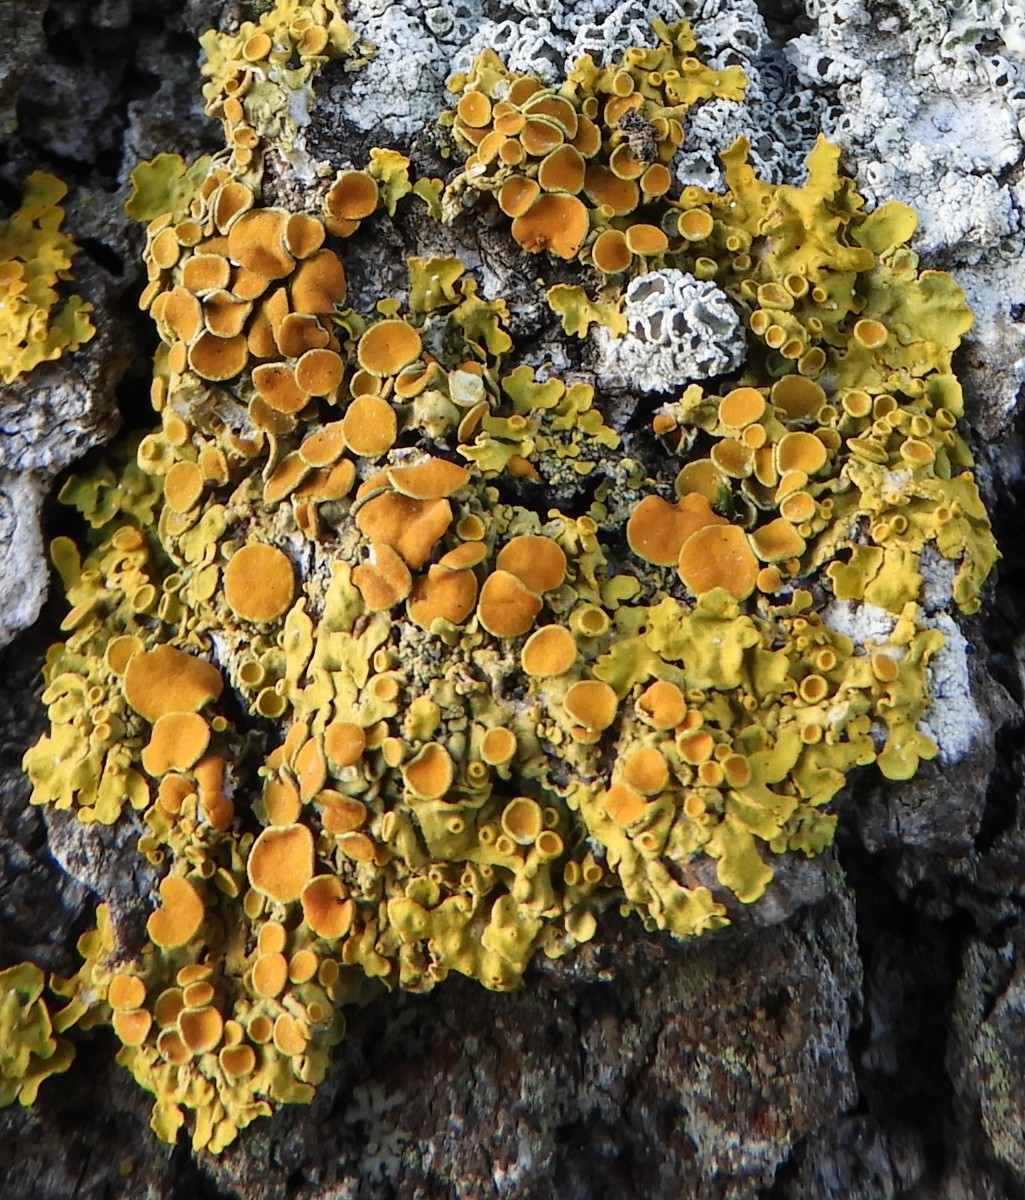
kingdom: Fungi
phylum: Ascomycota
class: Lecanoromycetes
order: Teloschistales
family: Teloschistaceae
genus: Xanthoria
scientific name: Xanthoria parietina
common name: almindelig væggelav
